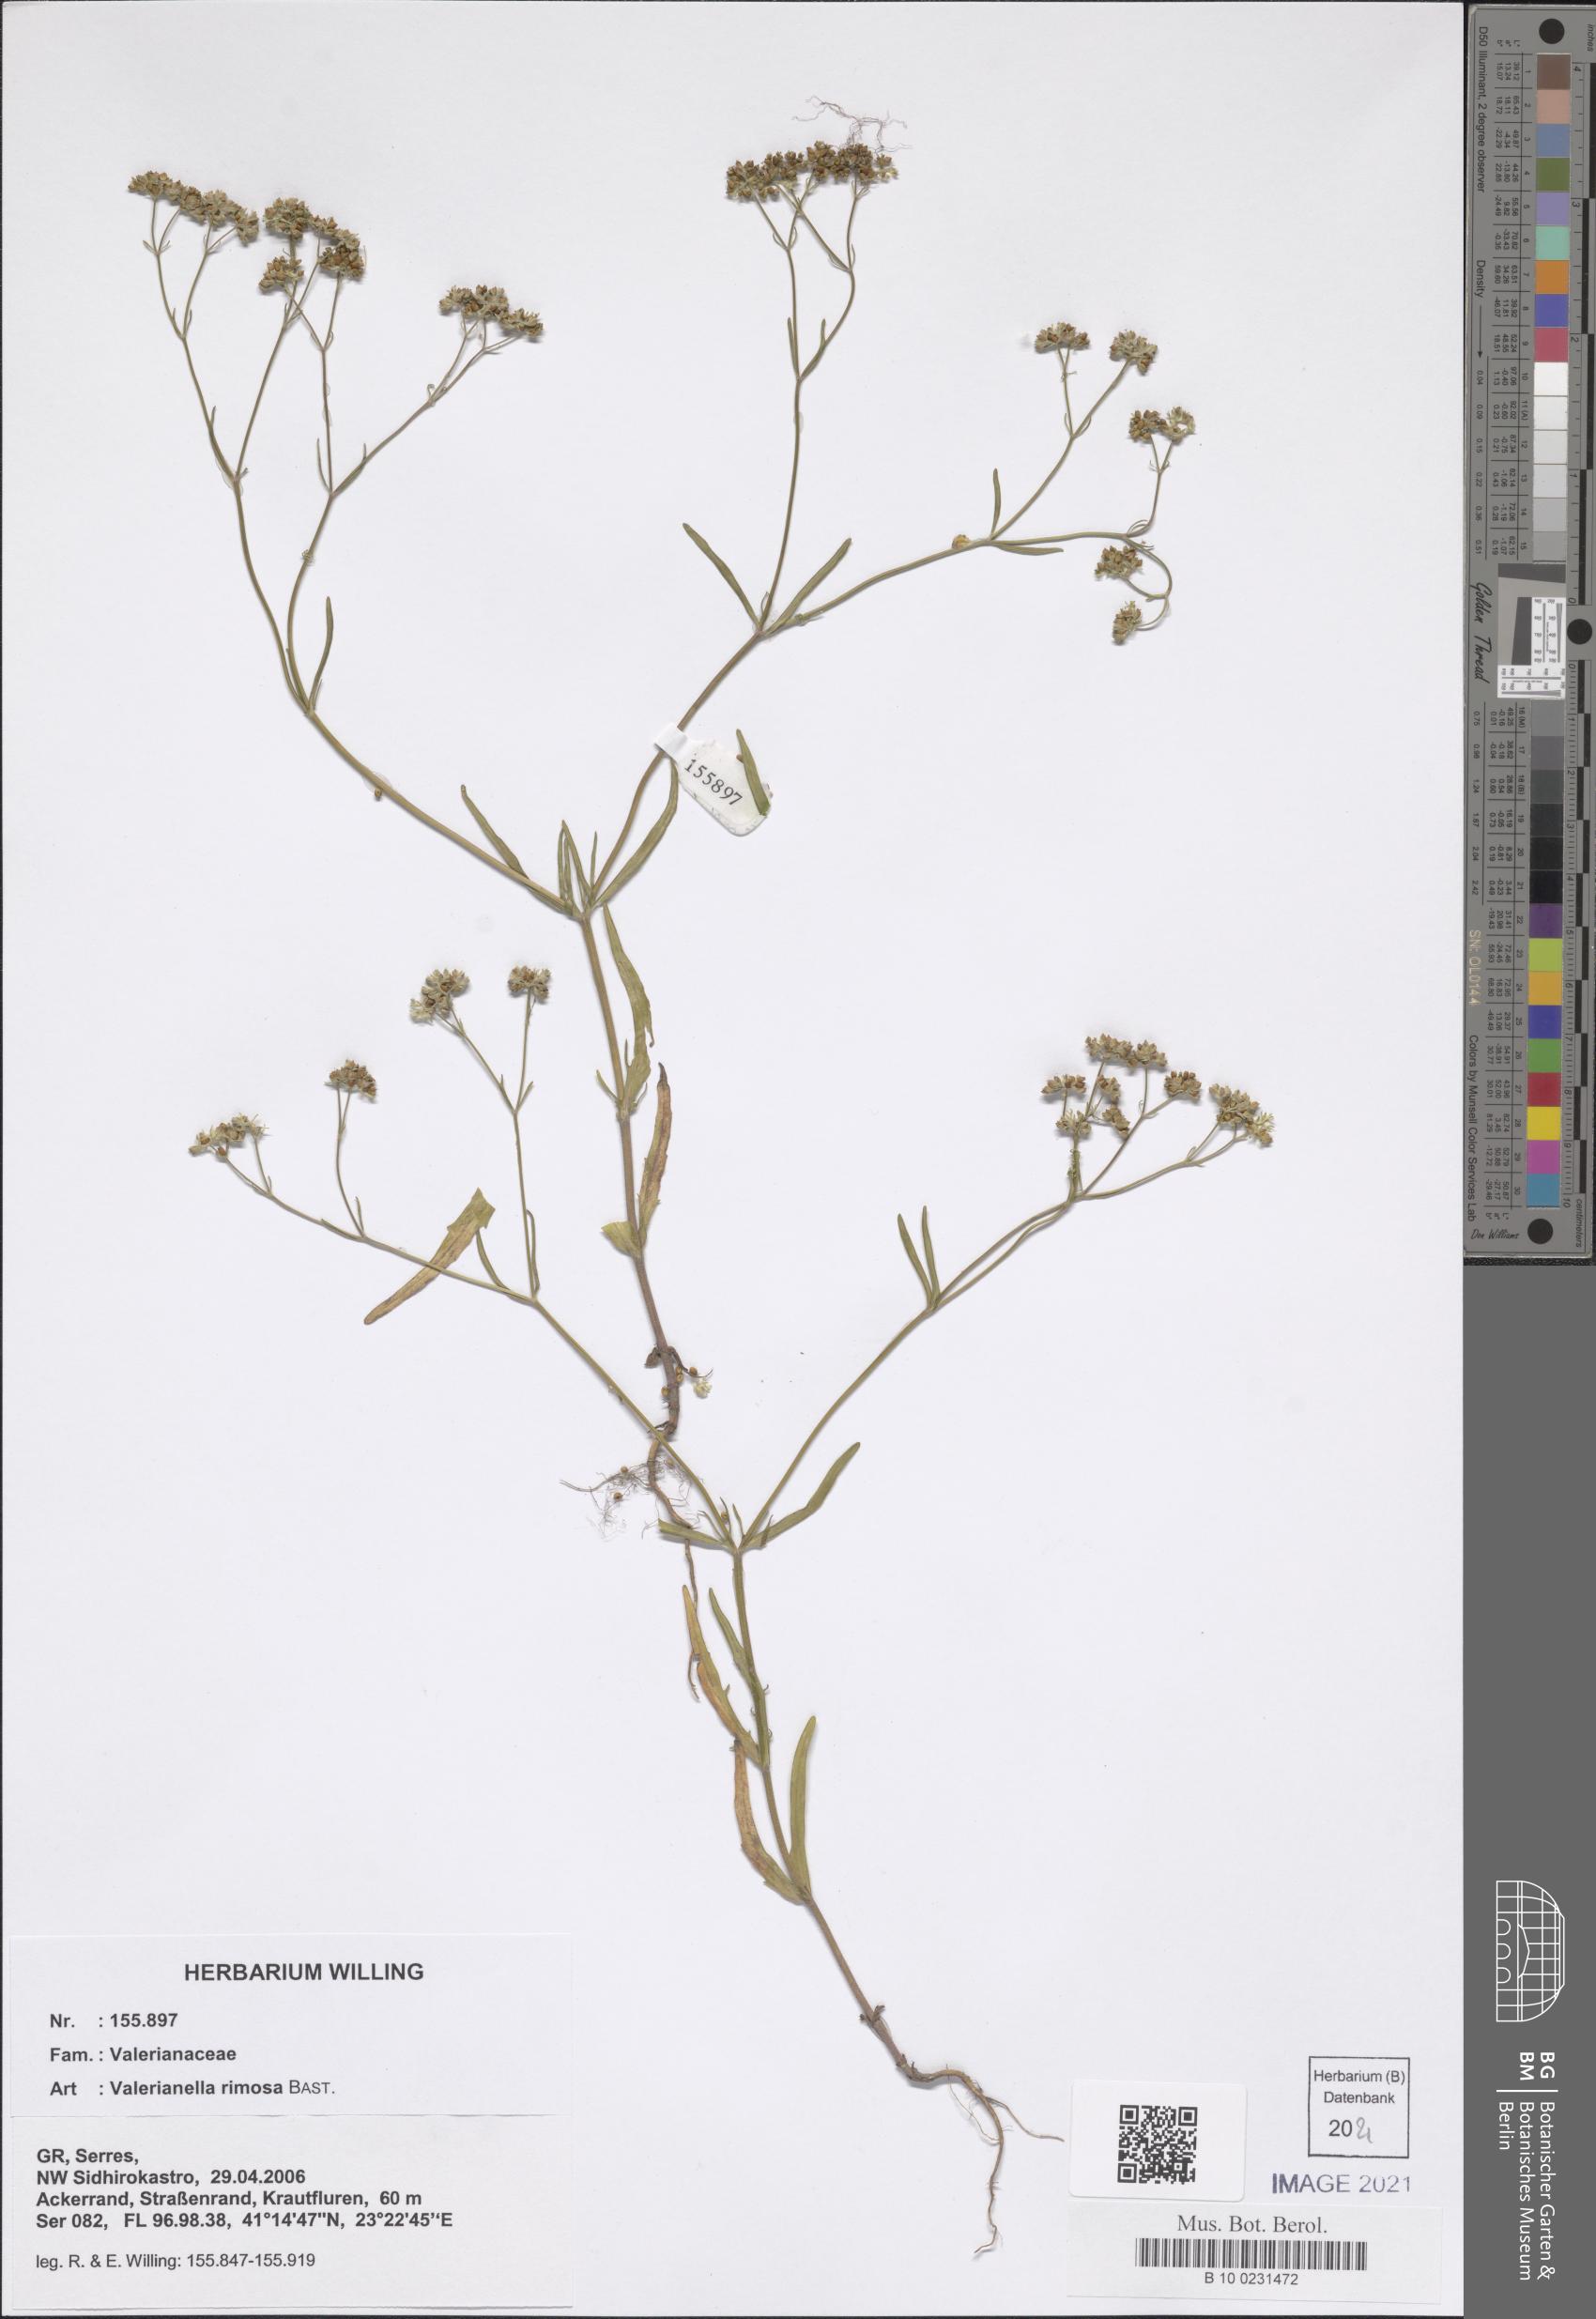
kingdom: Plantae
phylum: Tracheophyta
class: Magnoliopsida
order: Dipsacales
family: Caprifoliaceae
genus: Valerianella
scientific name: Valerianella rimosa
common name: Broad-fruited cornsalad
